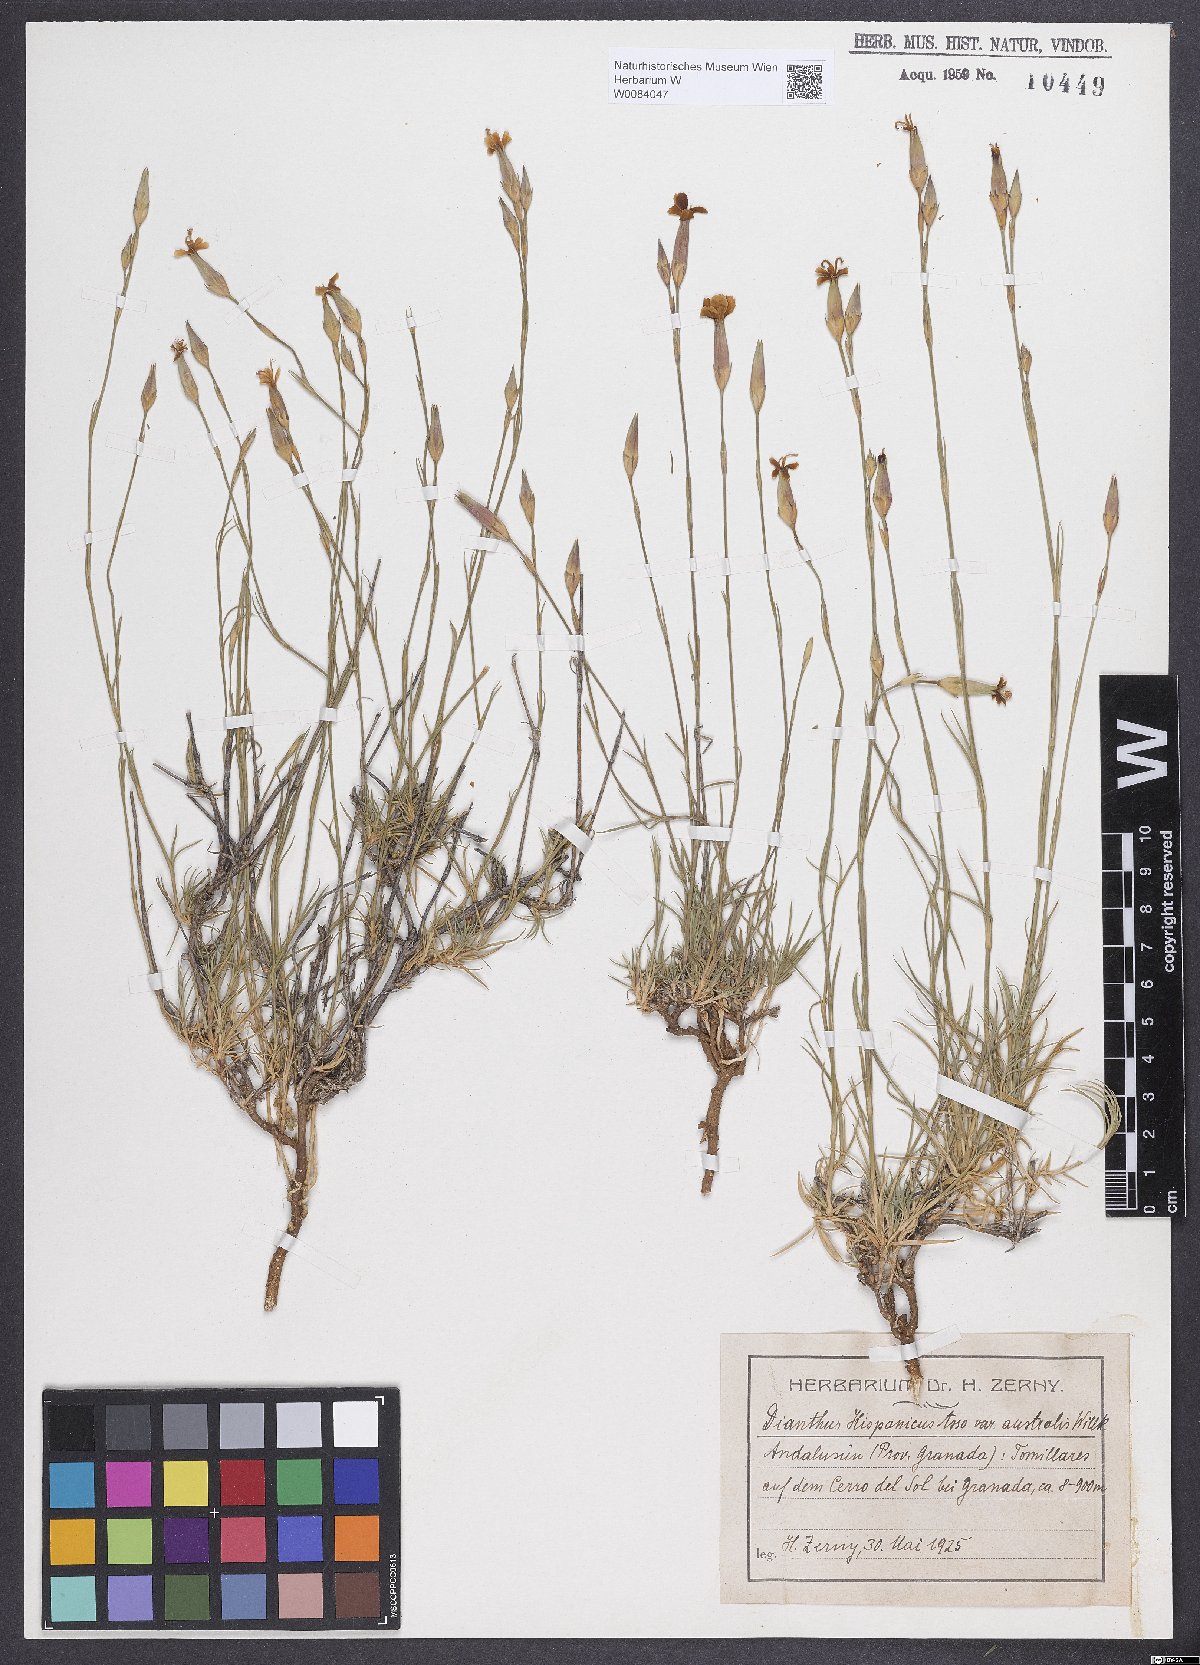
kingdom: Plantae
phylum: Tracheophyta
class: Magnoliopsida
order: Caryophyllales
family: Caryophyllaceae
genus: Dianthus
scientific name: Dianthus pungens
